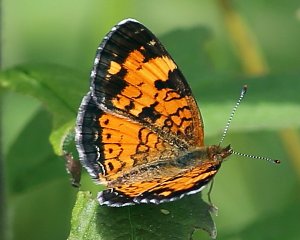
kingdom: Animalia
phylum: Arthropoda
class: Insecta
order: Lepidoptera
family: Nymphalidae
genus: Phyciodes
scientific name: Phyciodes tharos
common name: Northern Crescent
